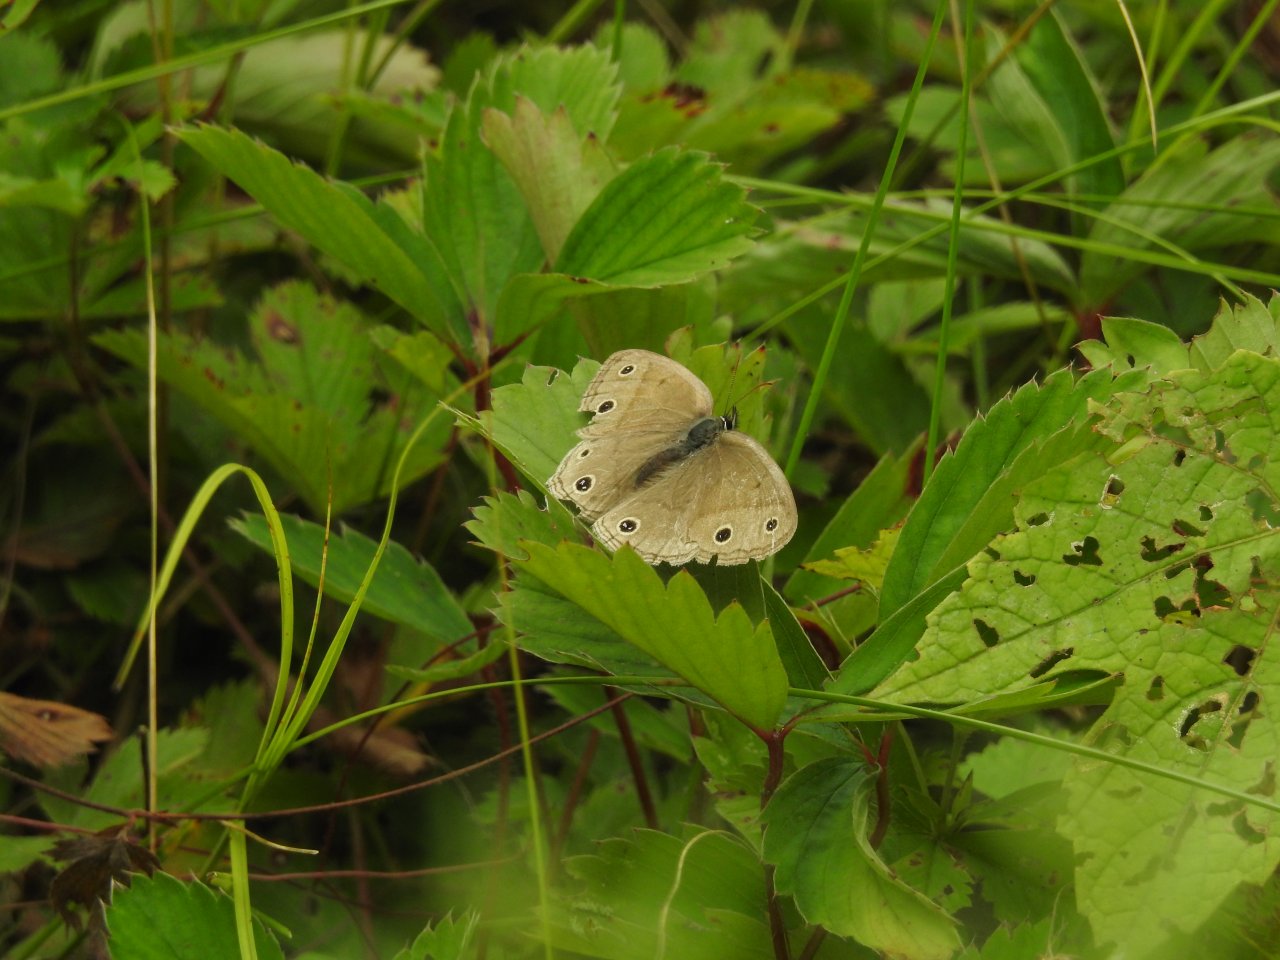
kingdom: Animalia
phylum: Arthropoda
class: Insecta
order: Lepidoptera
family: Nymphalidae
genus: Euptychia
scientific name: Euptychia cymela
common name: Little Wood Satyr
